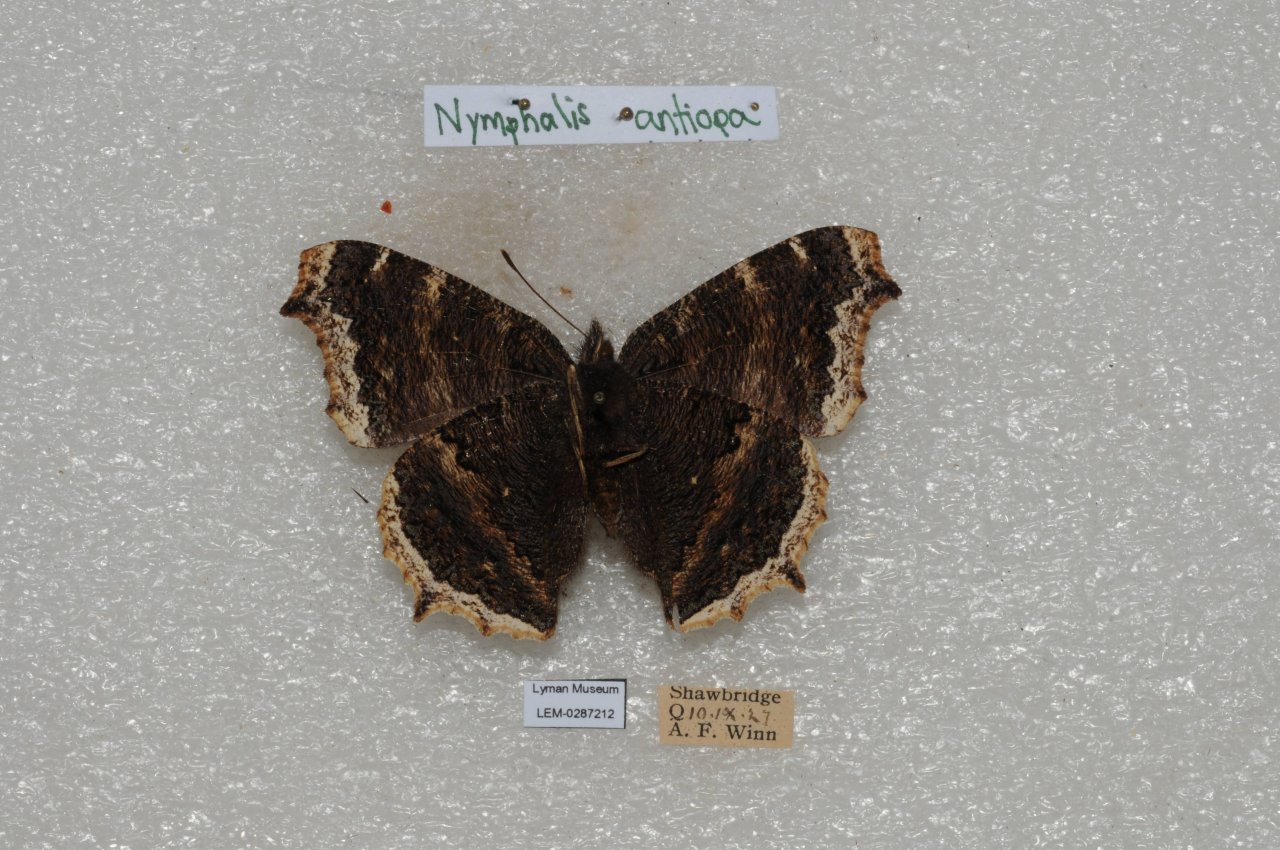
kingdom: Animalia
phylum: Arthropoda
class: Insecta
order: Lepidoptera
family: Nymphalidae
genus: Nymphalis
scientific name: Nymphalis antiopa
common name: Mourning Cloak
